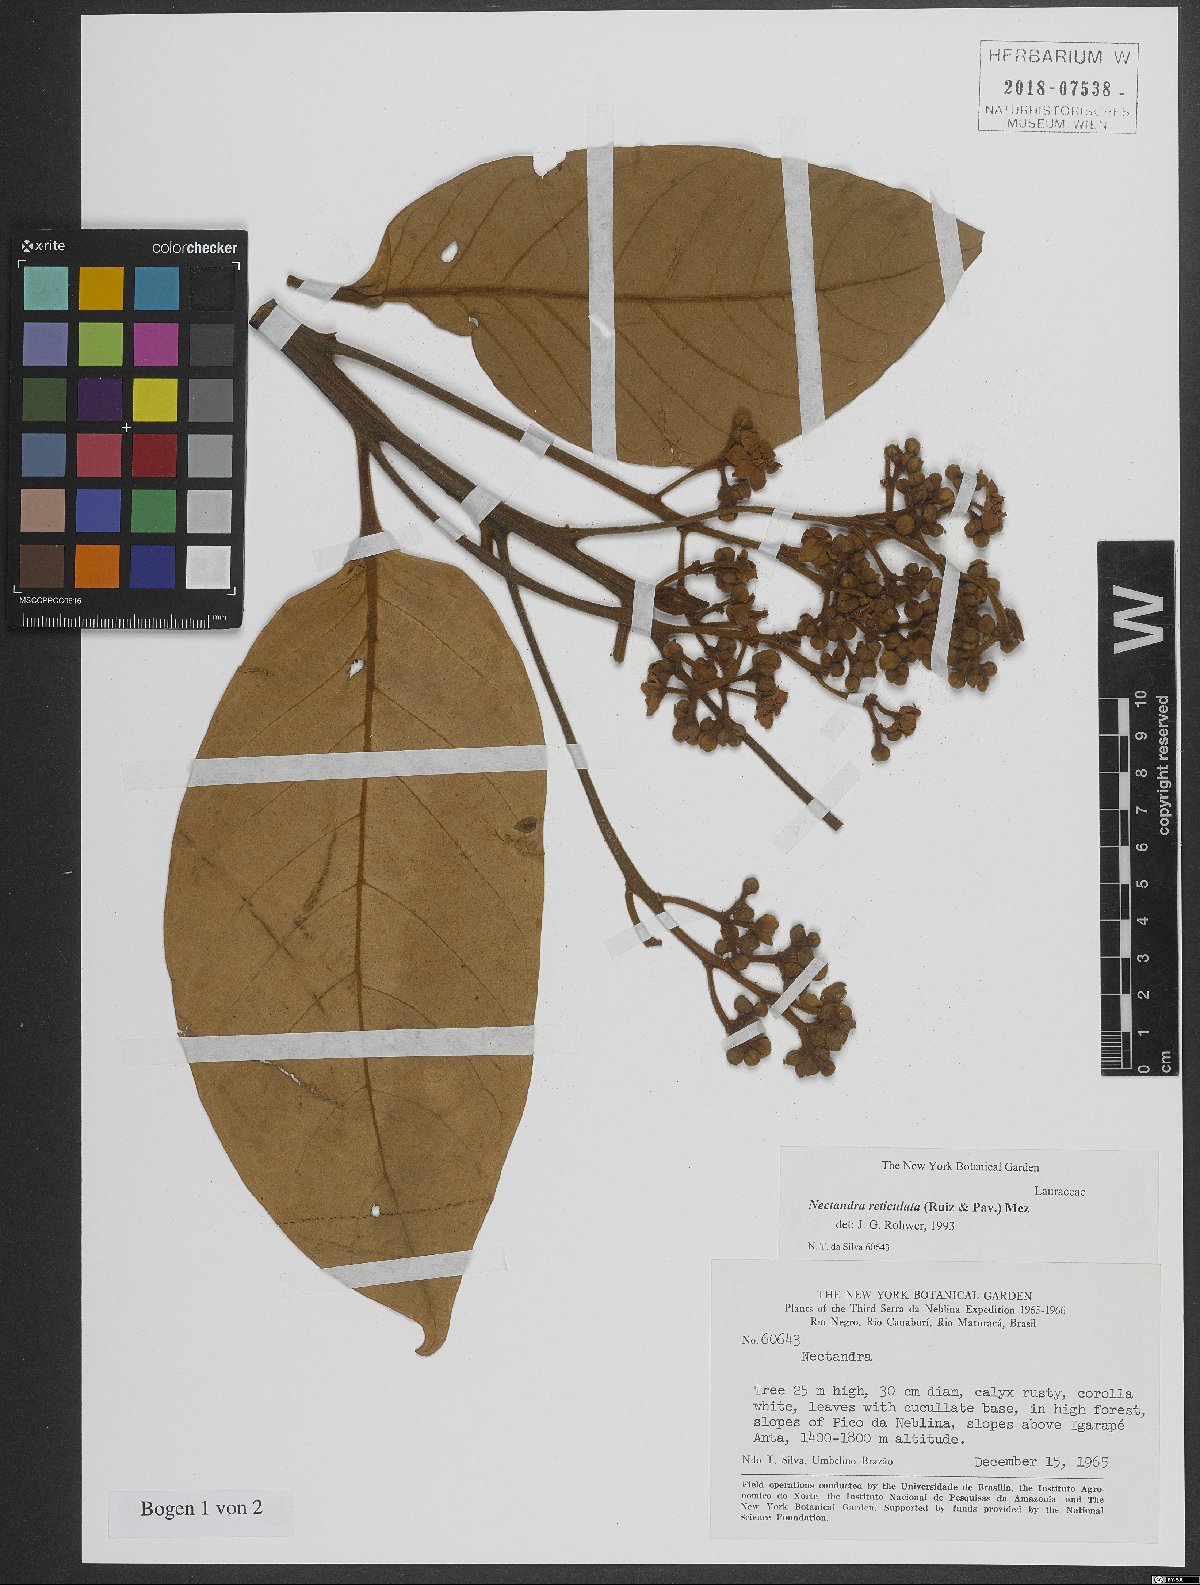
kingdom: Plantae
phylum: Tracheophyta
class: Magnoliopsida
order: Laurales
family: Lauraceae
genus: Nectandra
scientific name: Nectandra villosa
